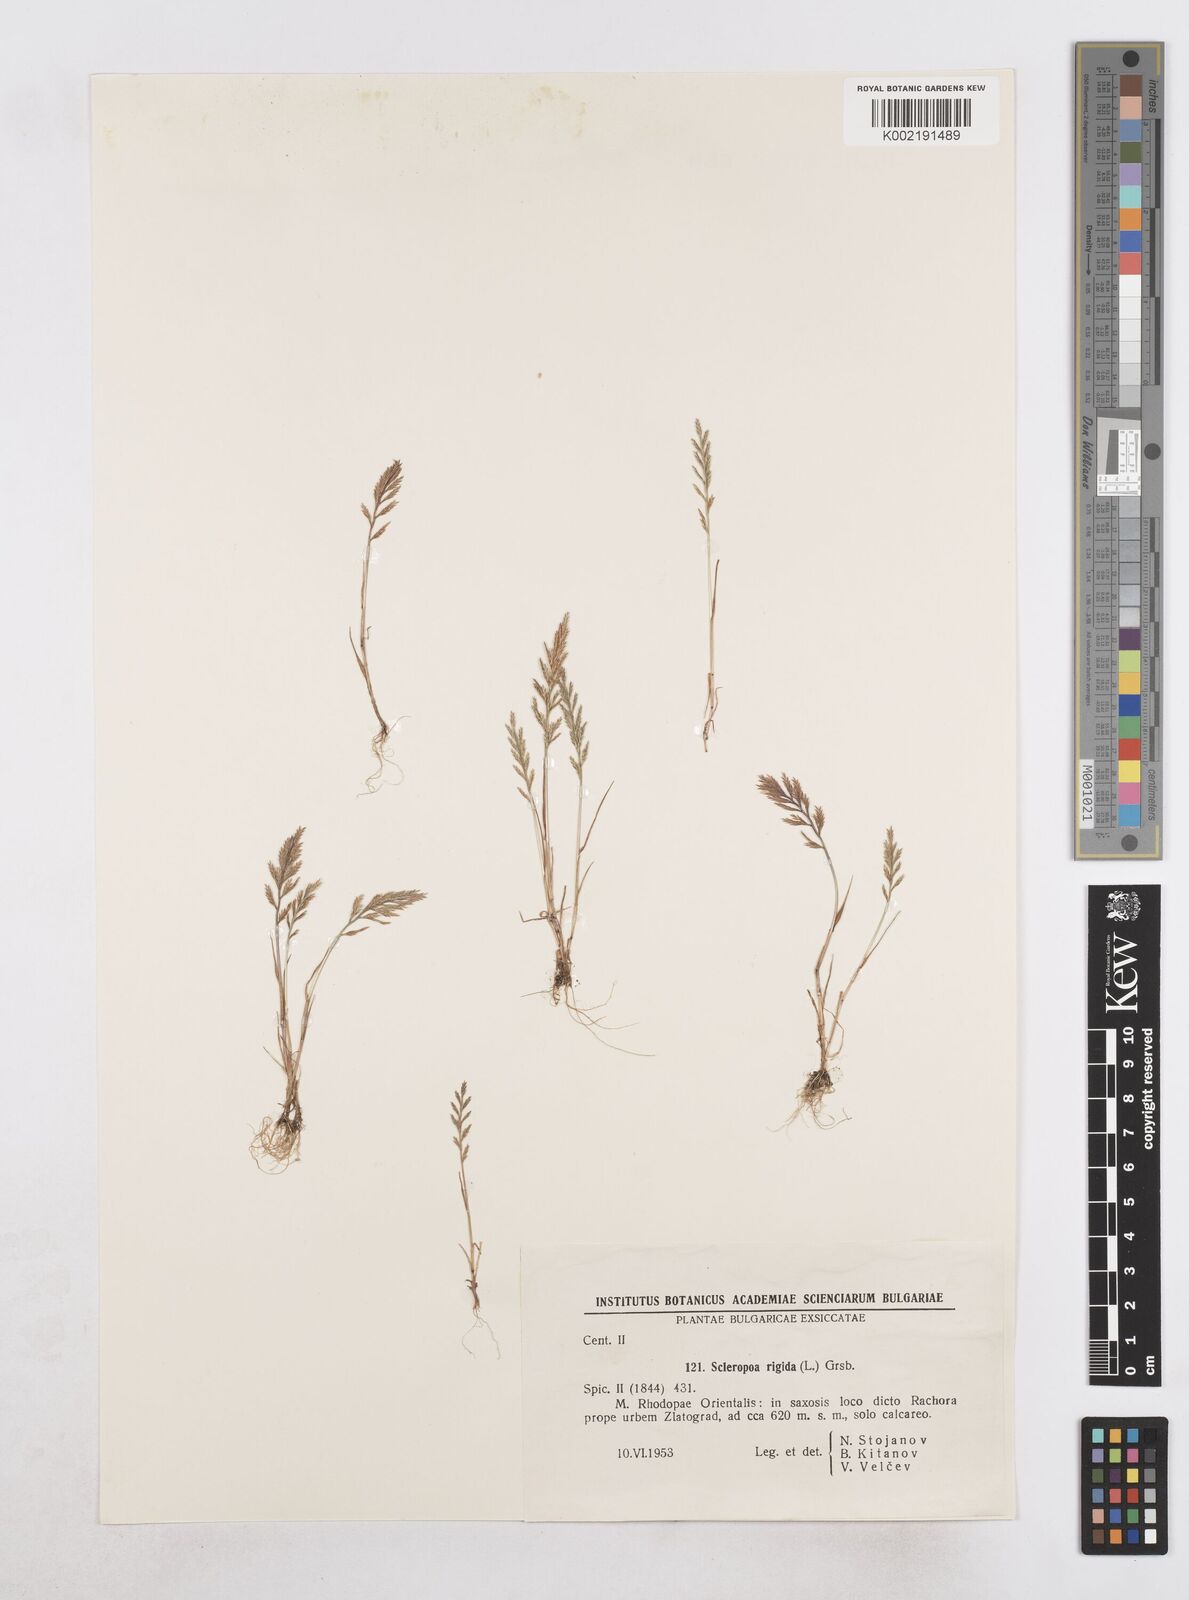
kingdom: Plantae
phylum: Tracheophyta
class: Liliopsida
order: Poales
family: Poaceae
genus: Catapodium
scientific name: Catapodium rigidum
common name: Fern-grass
